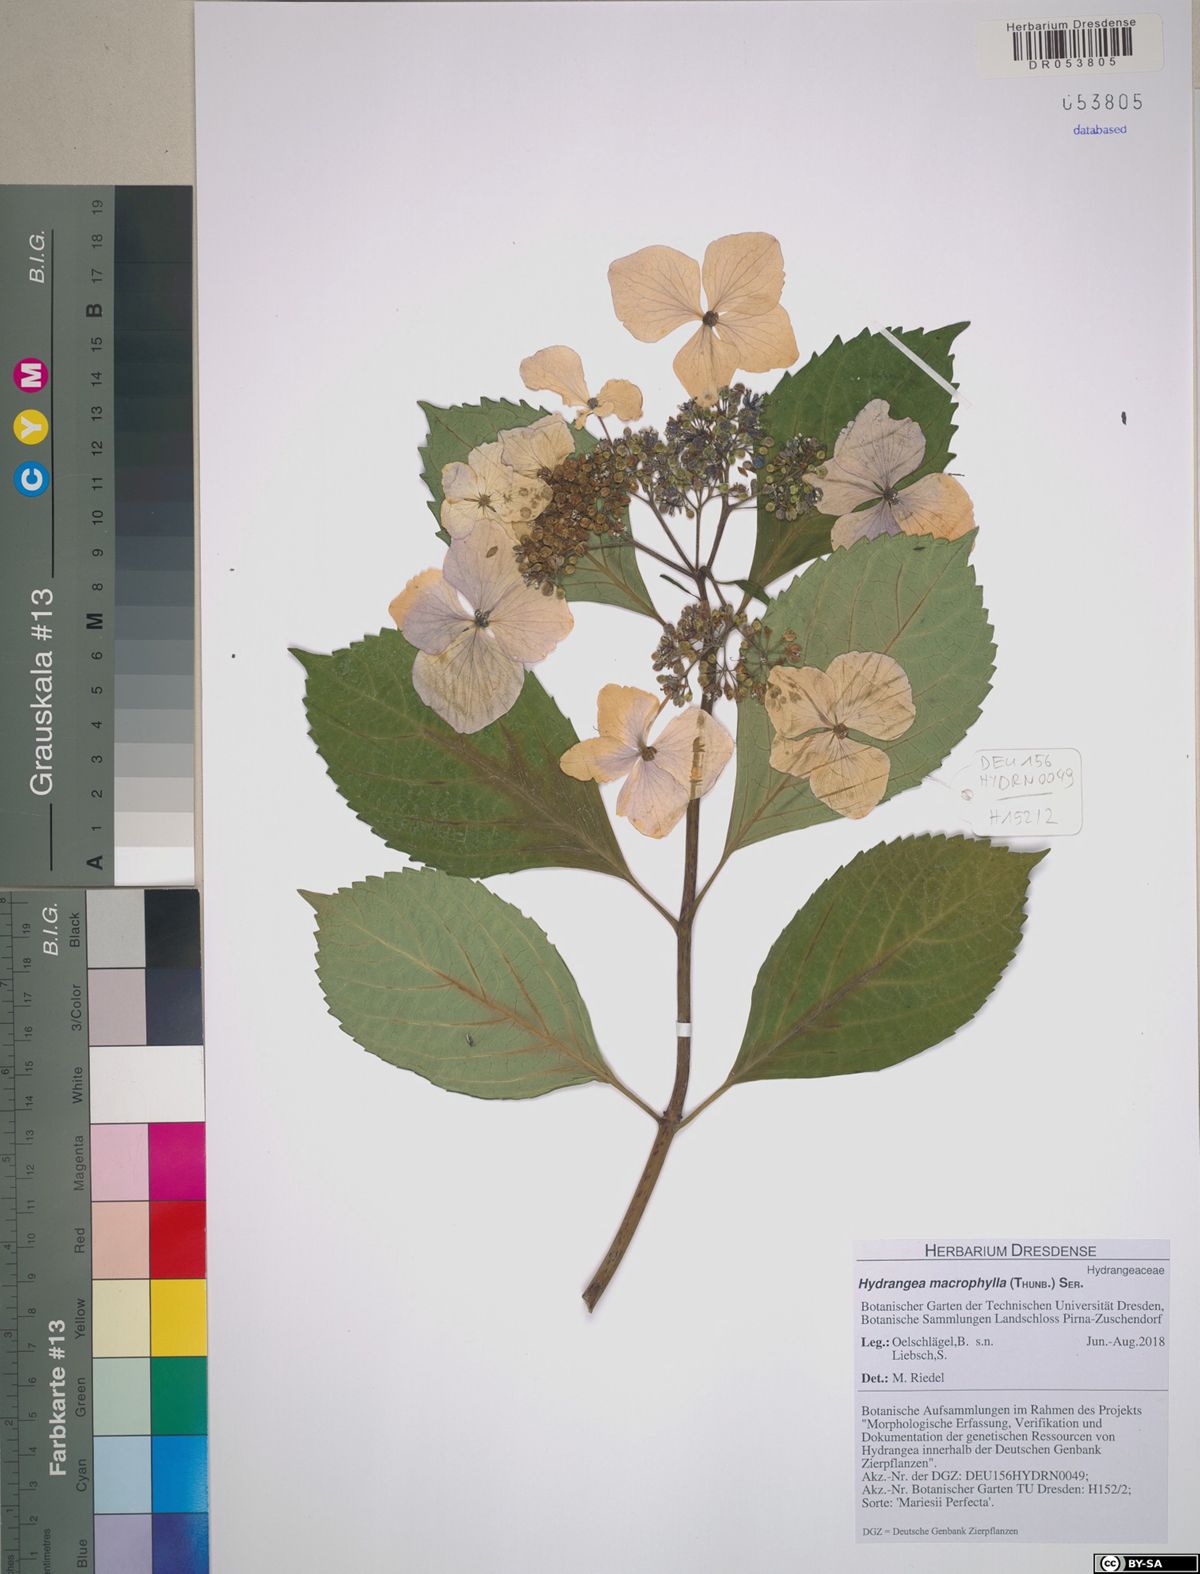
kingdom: Plantae
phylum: Tracheophyta
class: Magnoliopsida
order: Cornales
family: Hydrangeaceae
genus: Hydrangea
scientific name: Hydrangea macrophylla
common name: Hydrangea
